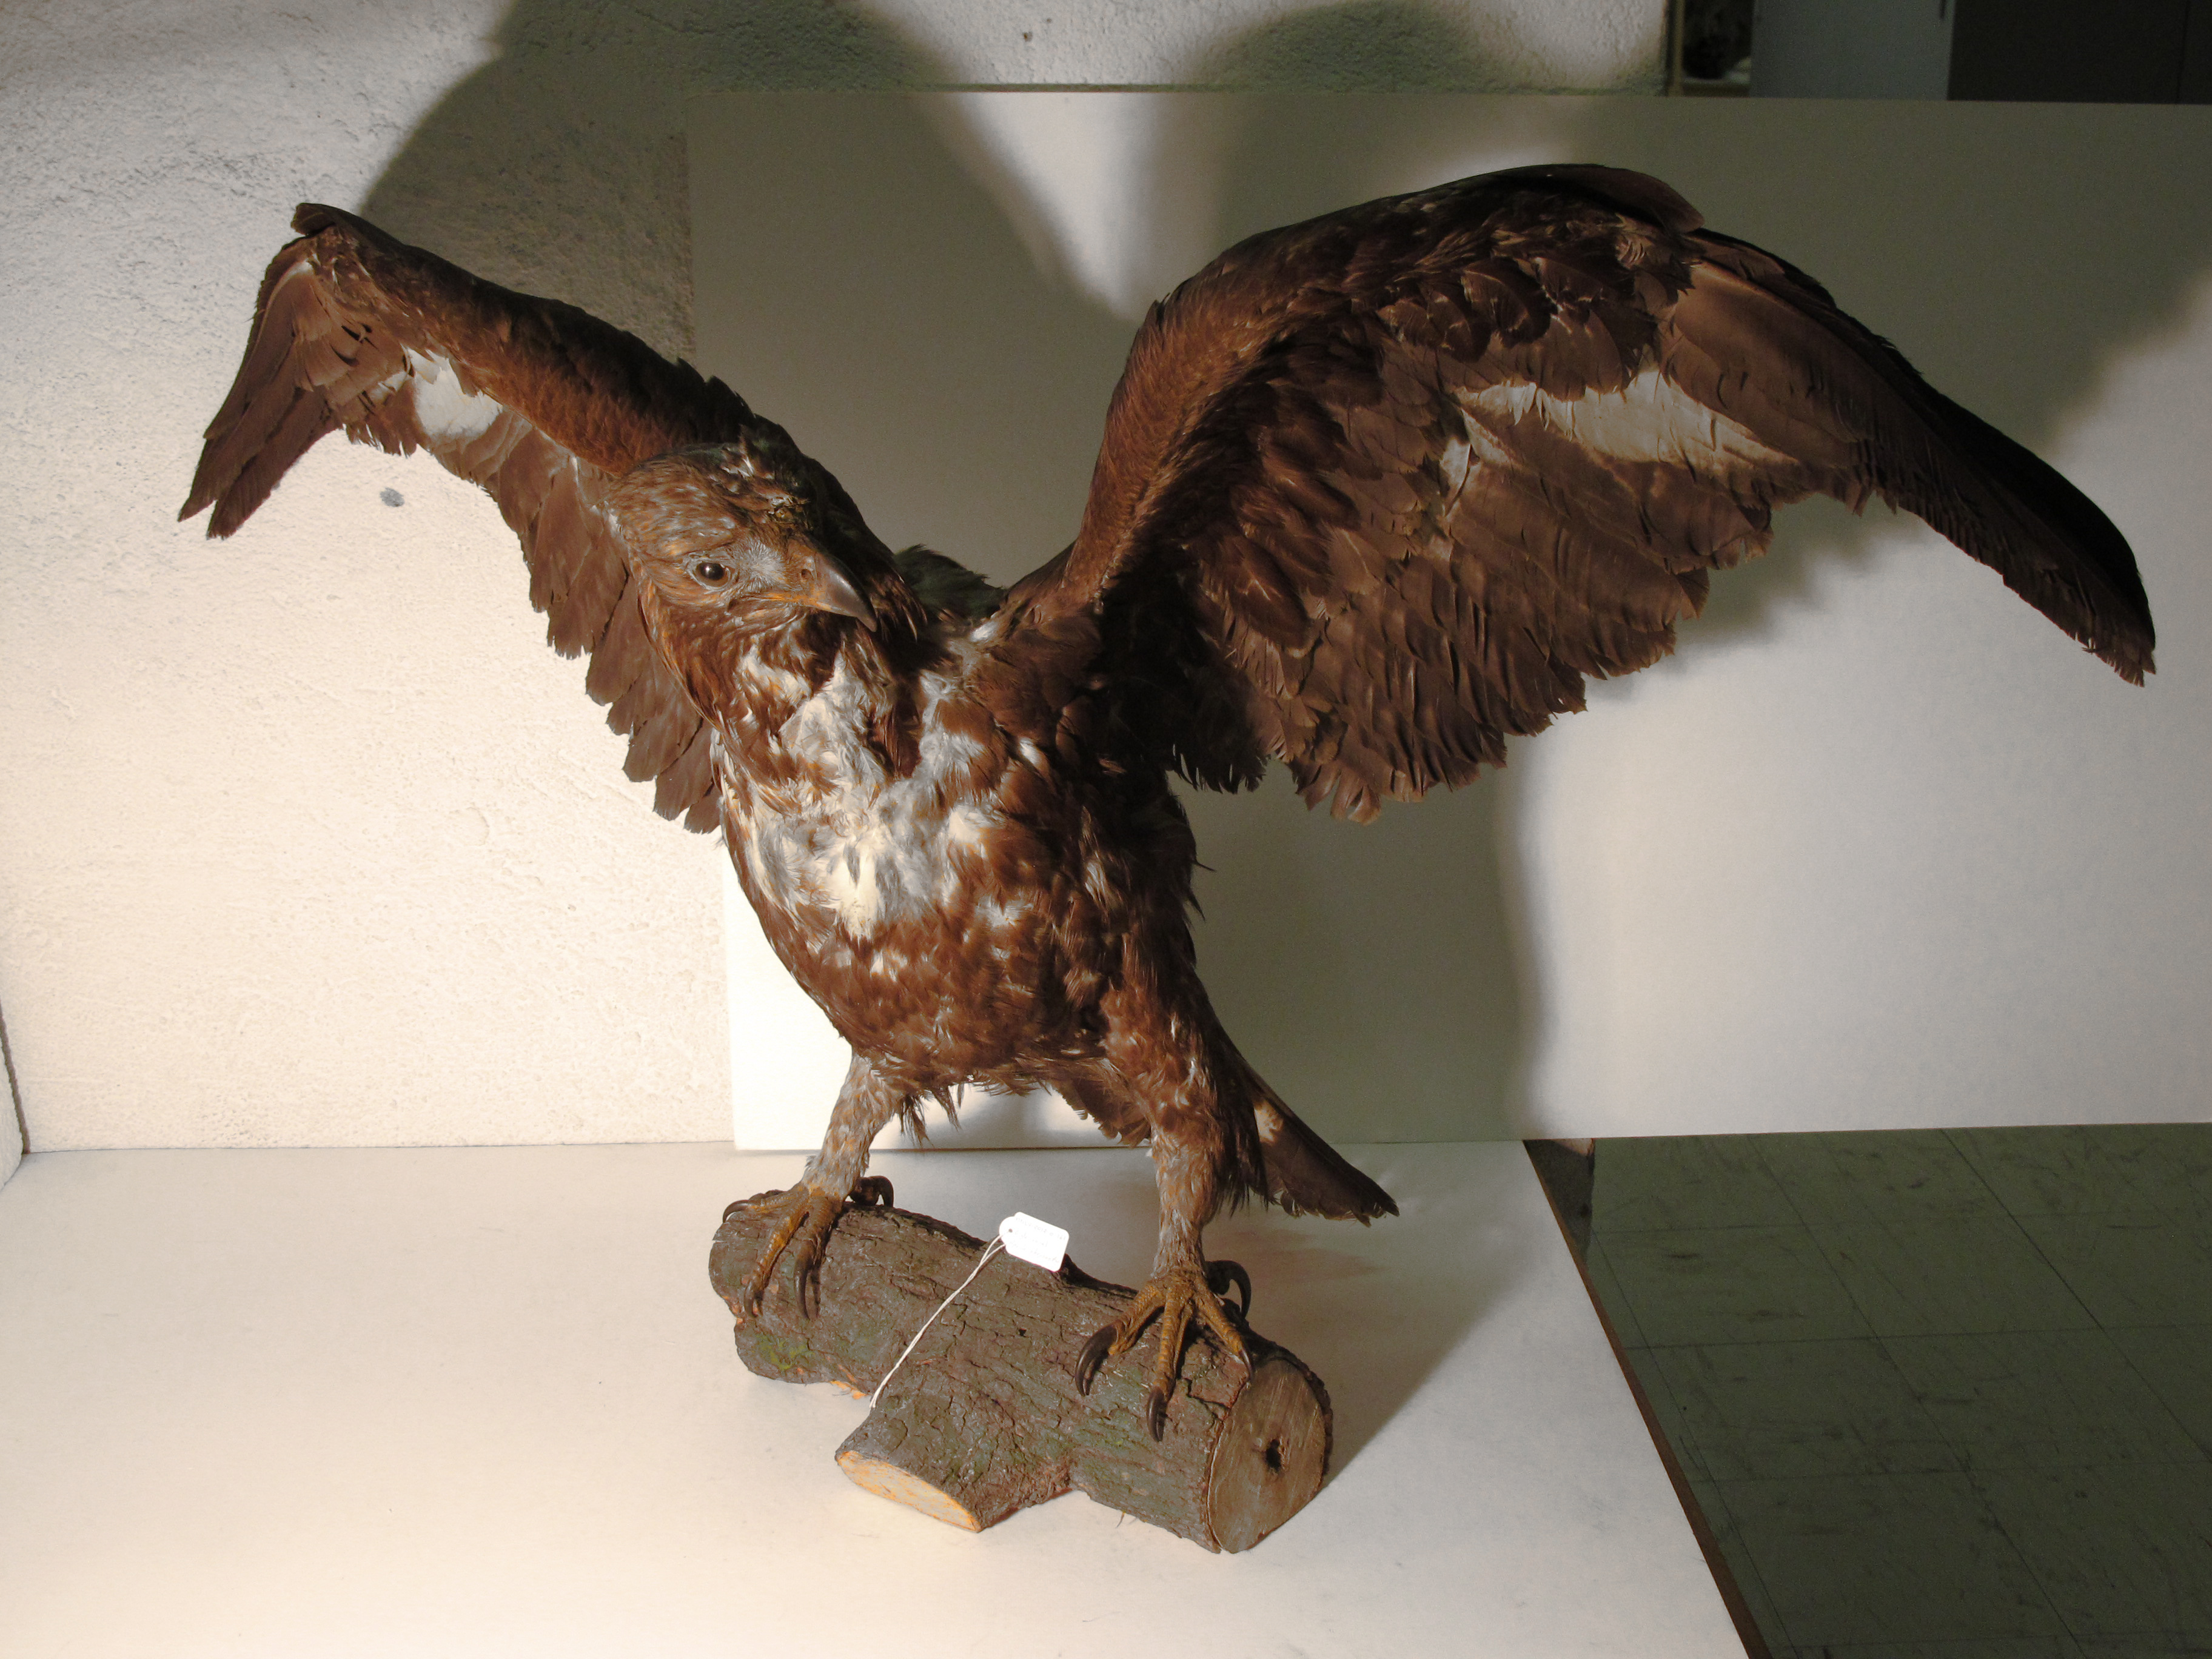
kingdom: Animalia
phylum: Chordata
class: Aves
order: Accipitriformes
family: Accipitridae
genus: Aquila
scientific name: Aquila chrysaetos
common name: Golden Eagle
